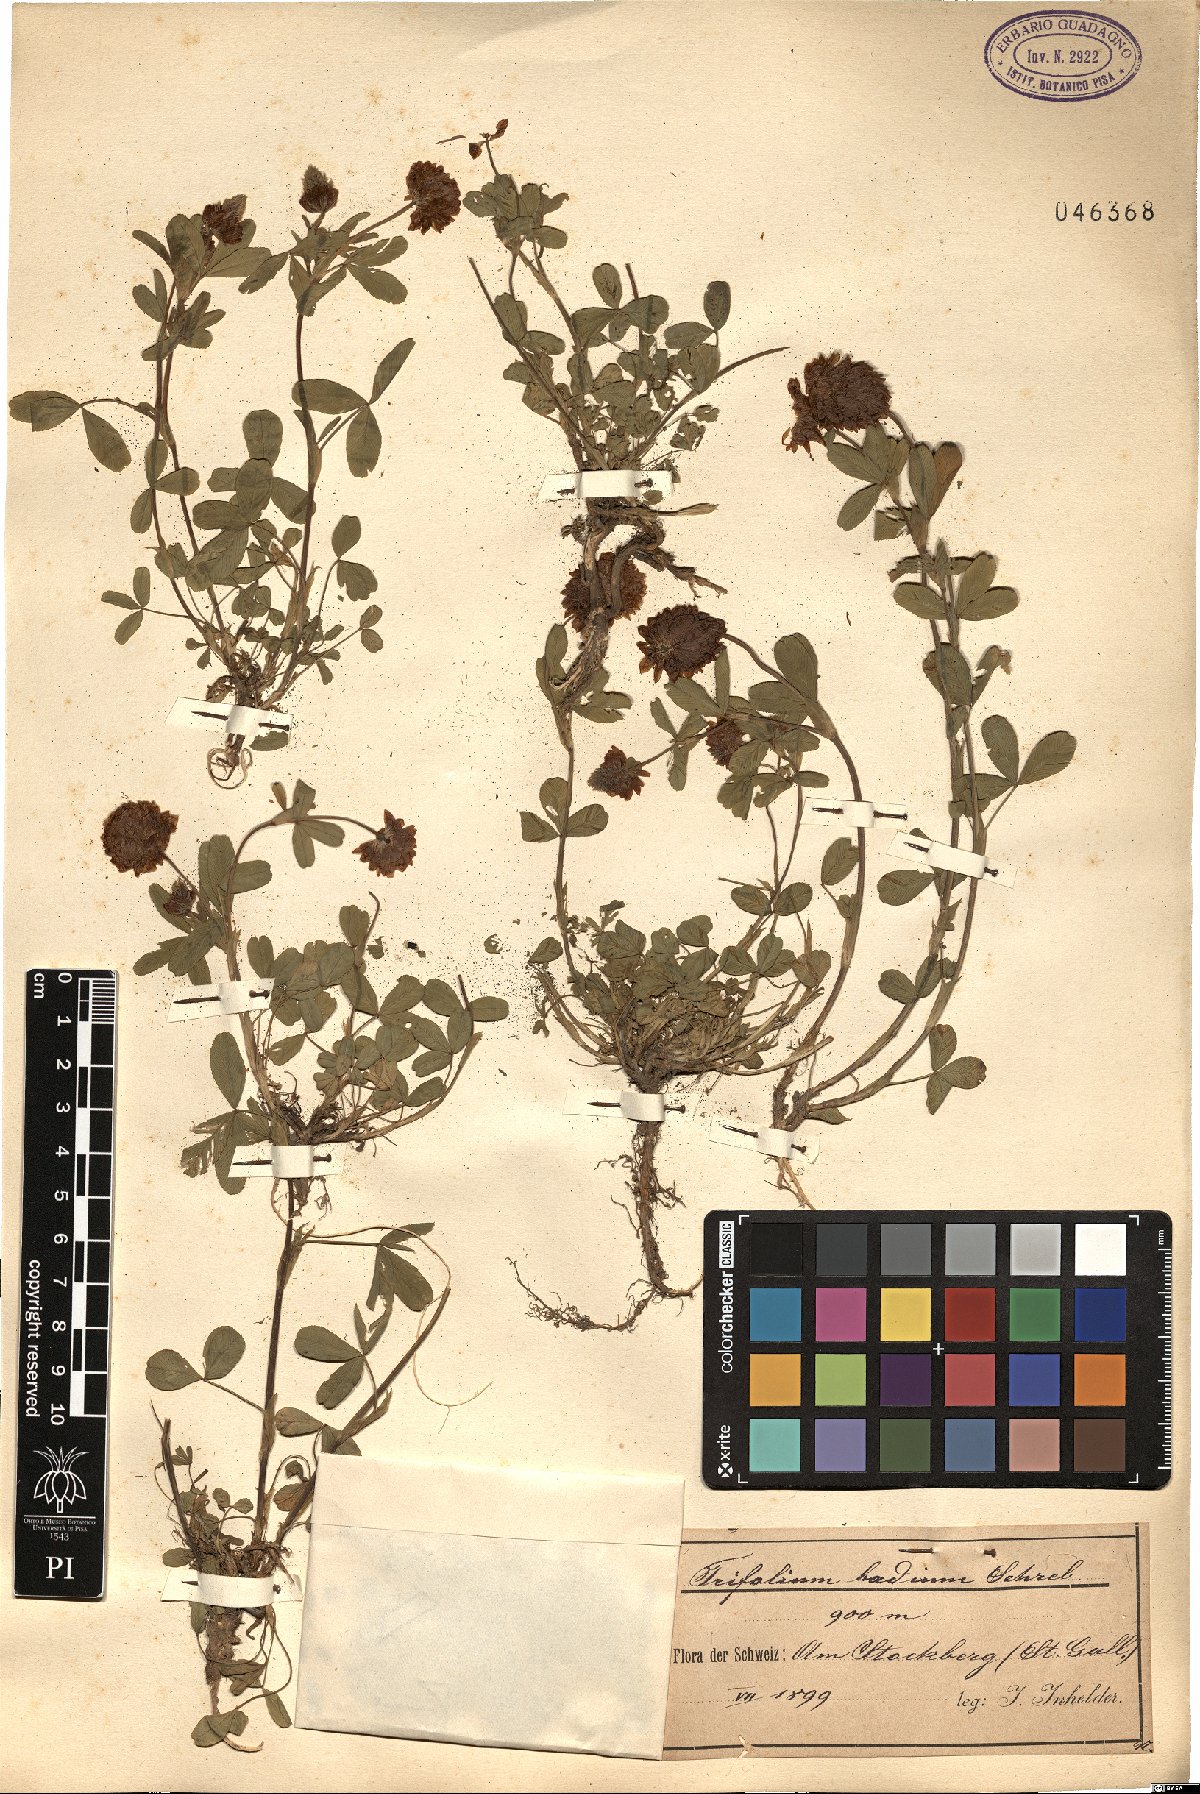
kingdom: Plantae
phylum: Tracheophyta
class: Magnoliopsida
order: Fabales
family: Fabaceae
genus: Trifolium
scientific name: Trifolium badium
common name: Brown clover
